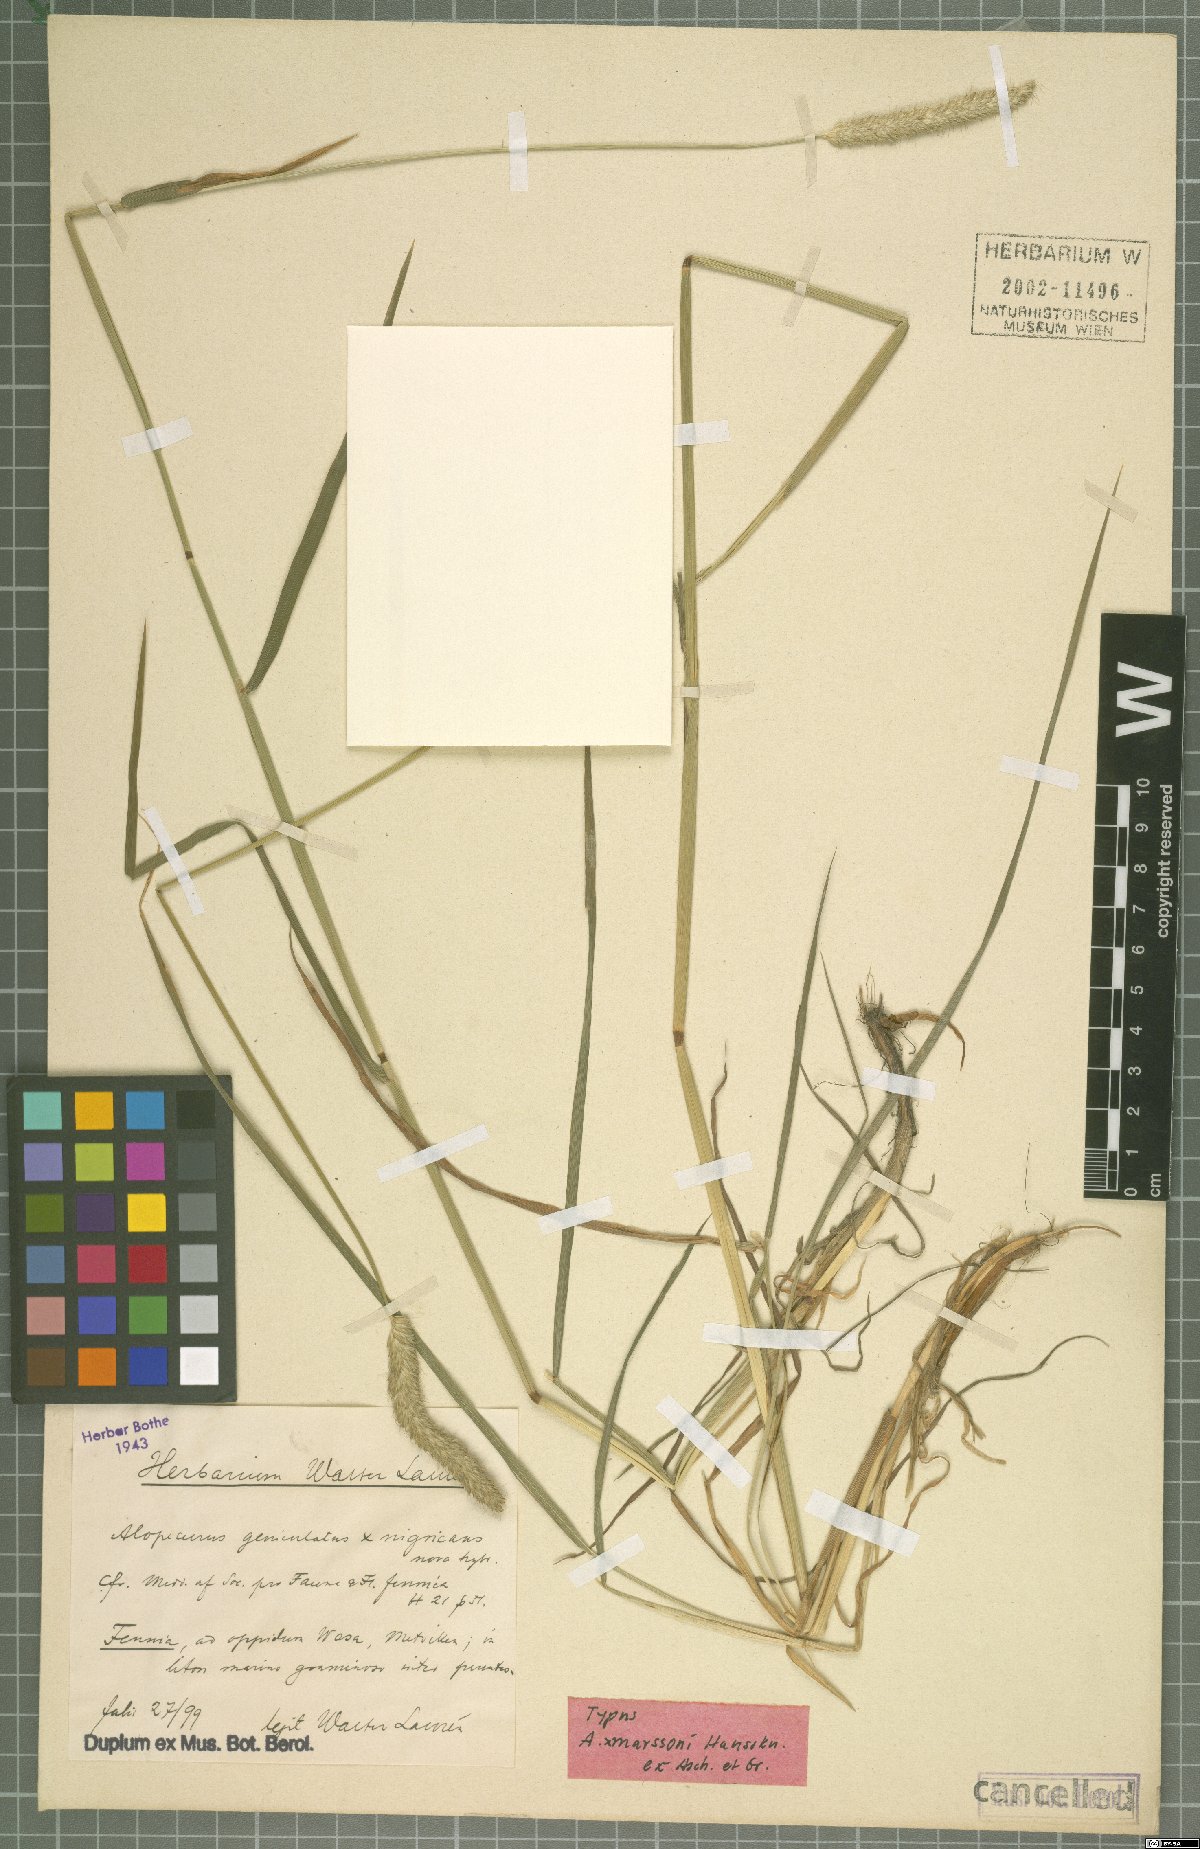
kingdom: Plantae
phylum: Tracheophyta
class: Liliopsida
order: Poales
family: Poaceae
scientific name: Poaceae
